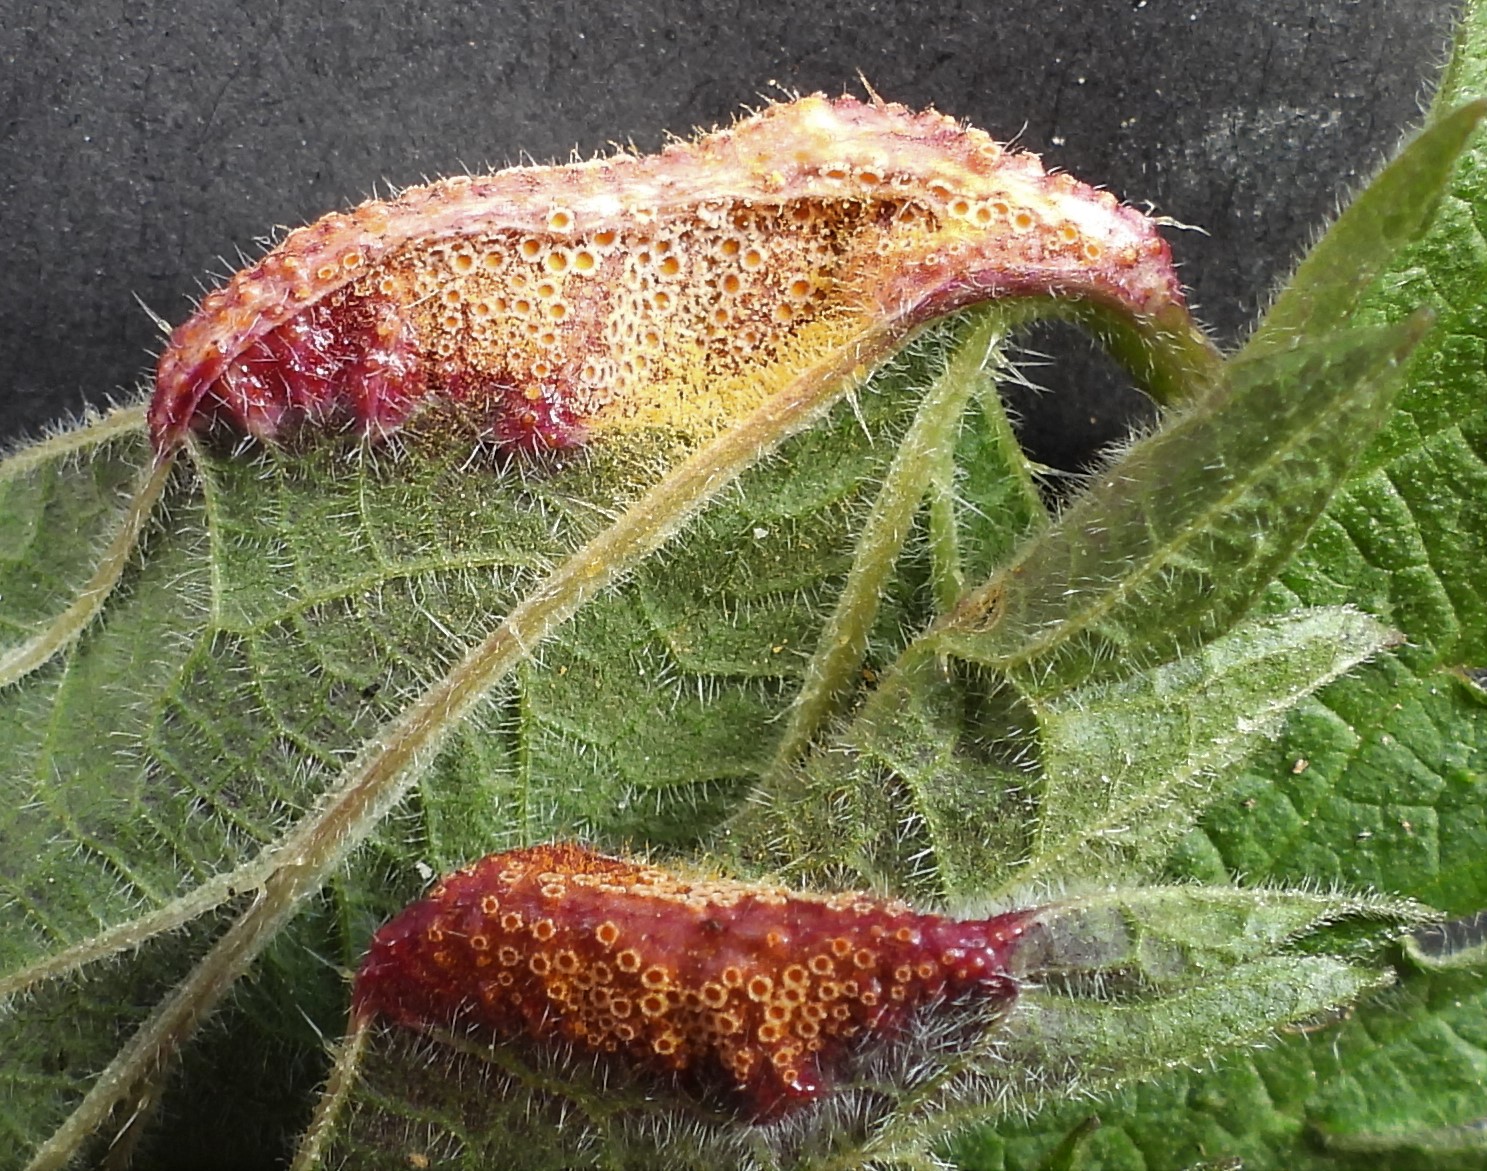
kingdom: Fungi
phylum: Basidiomycota
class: Pucciniomycetes
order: Pucciniales
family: Pucciniaceae
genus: Puccinia
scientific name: Puccinia urticata
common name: nældegalle-tvecellerust
